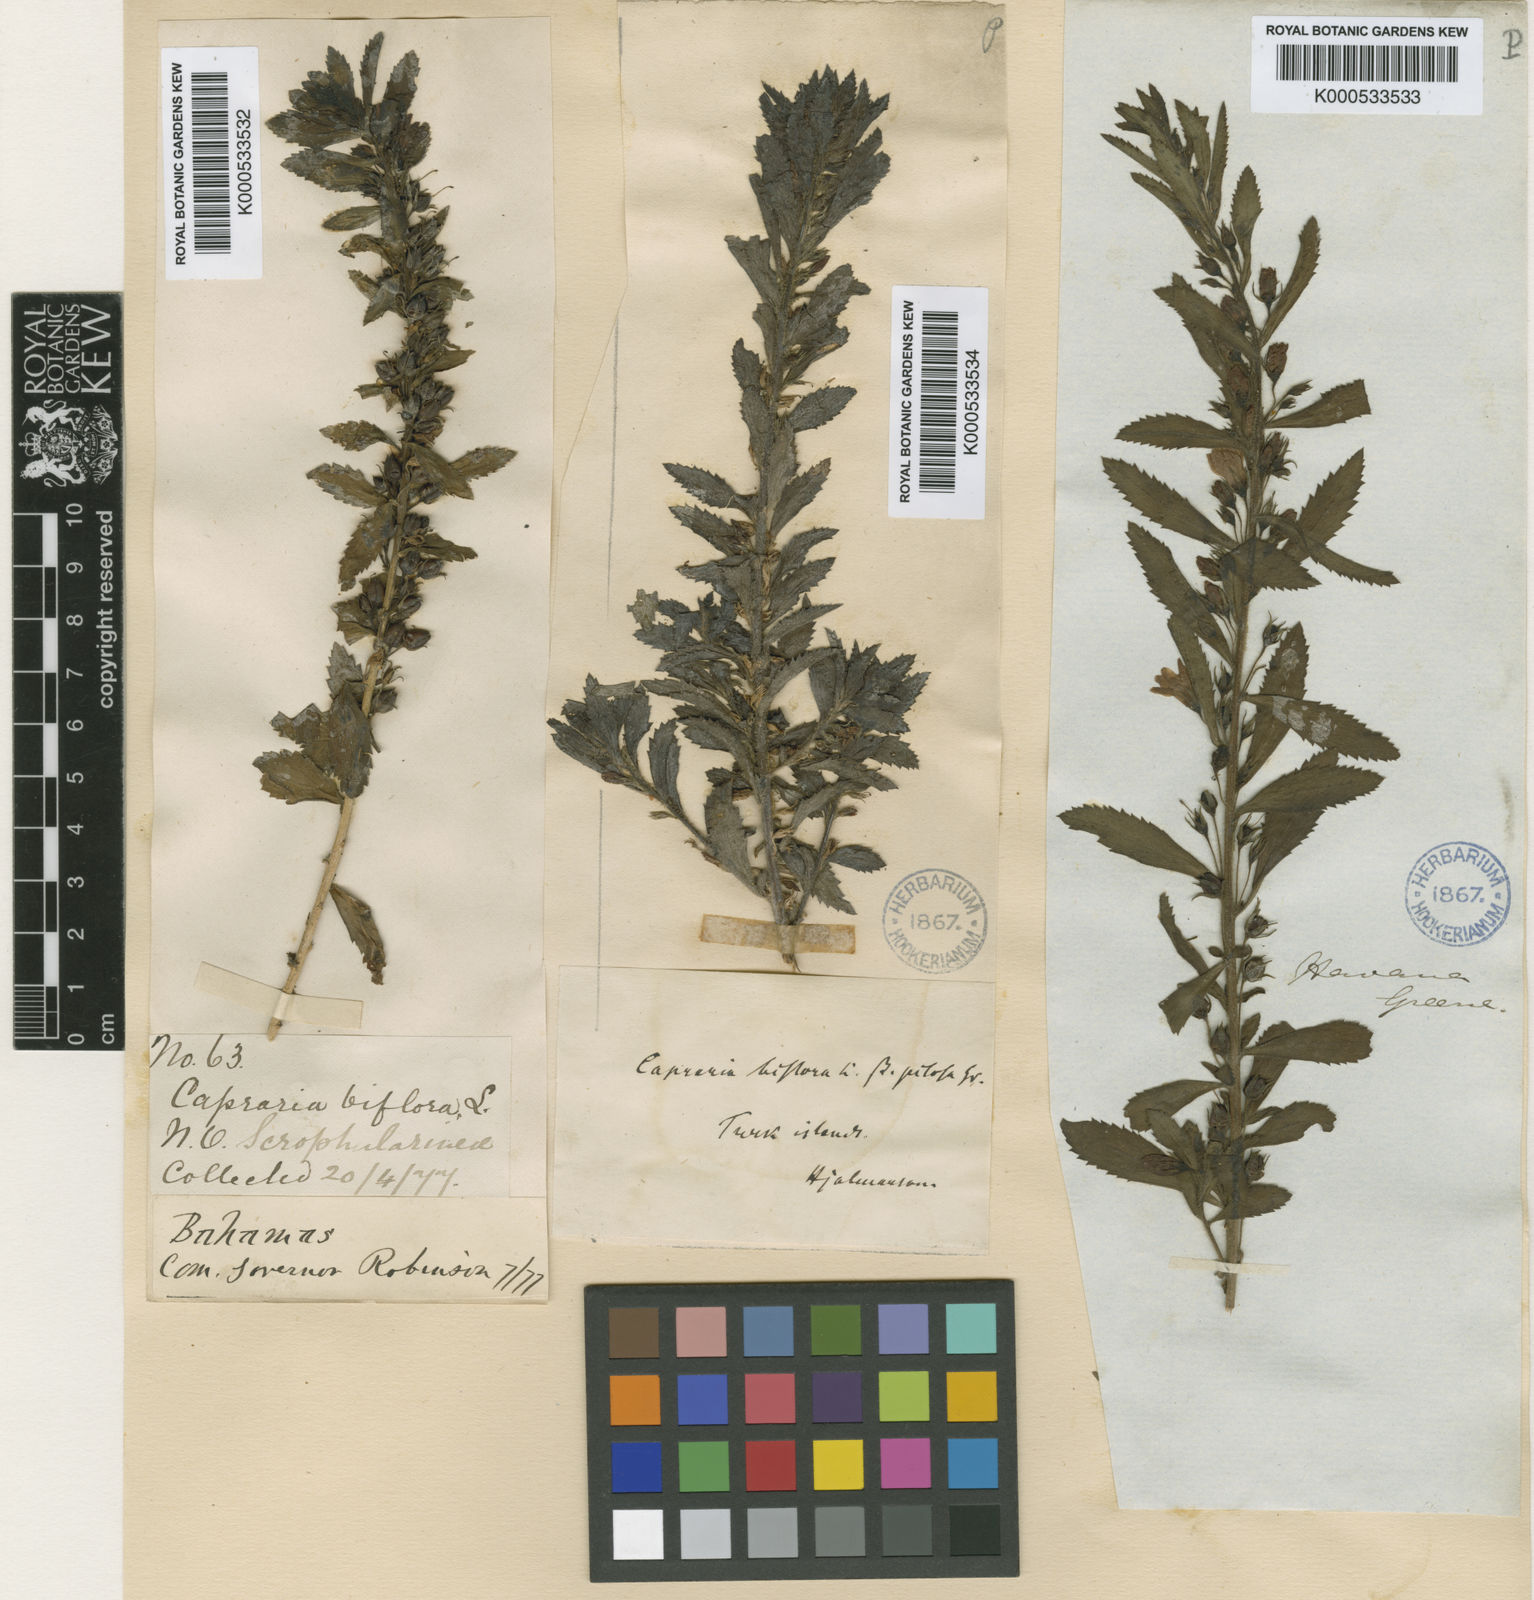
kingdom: Plantae
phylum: Tracheophyta
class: Magnoliopsida
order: Lamiales
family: Scrophulariaceae
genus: Capraria
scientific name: Capraria biflora
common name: Goatweed
